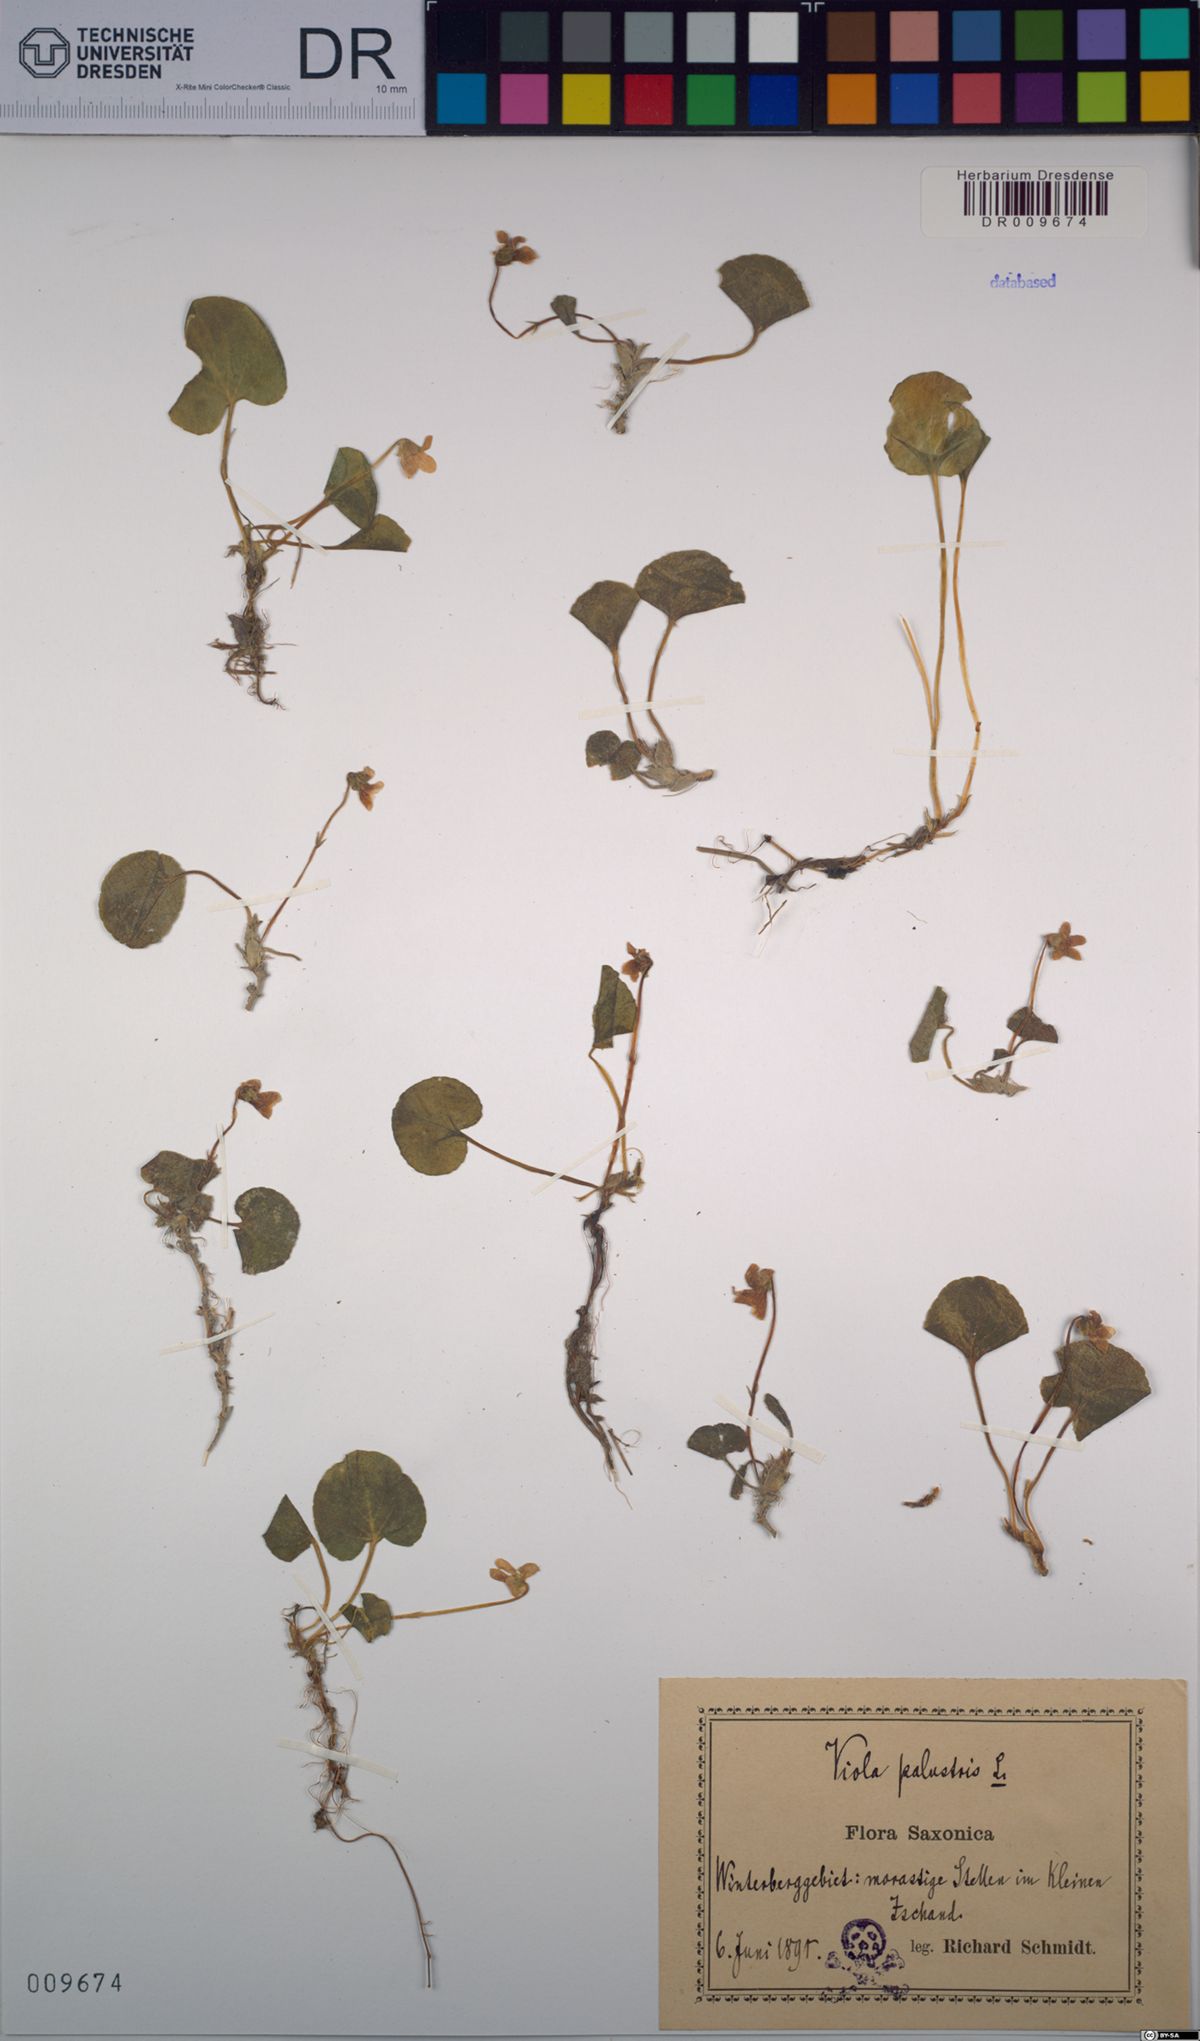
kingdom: Plantae
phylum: Tracheophyta
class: Magnoliopsida
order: Malpighiales
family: Violaceae
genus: Viola
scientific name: Viola palustris
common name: Marsh violet
